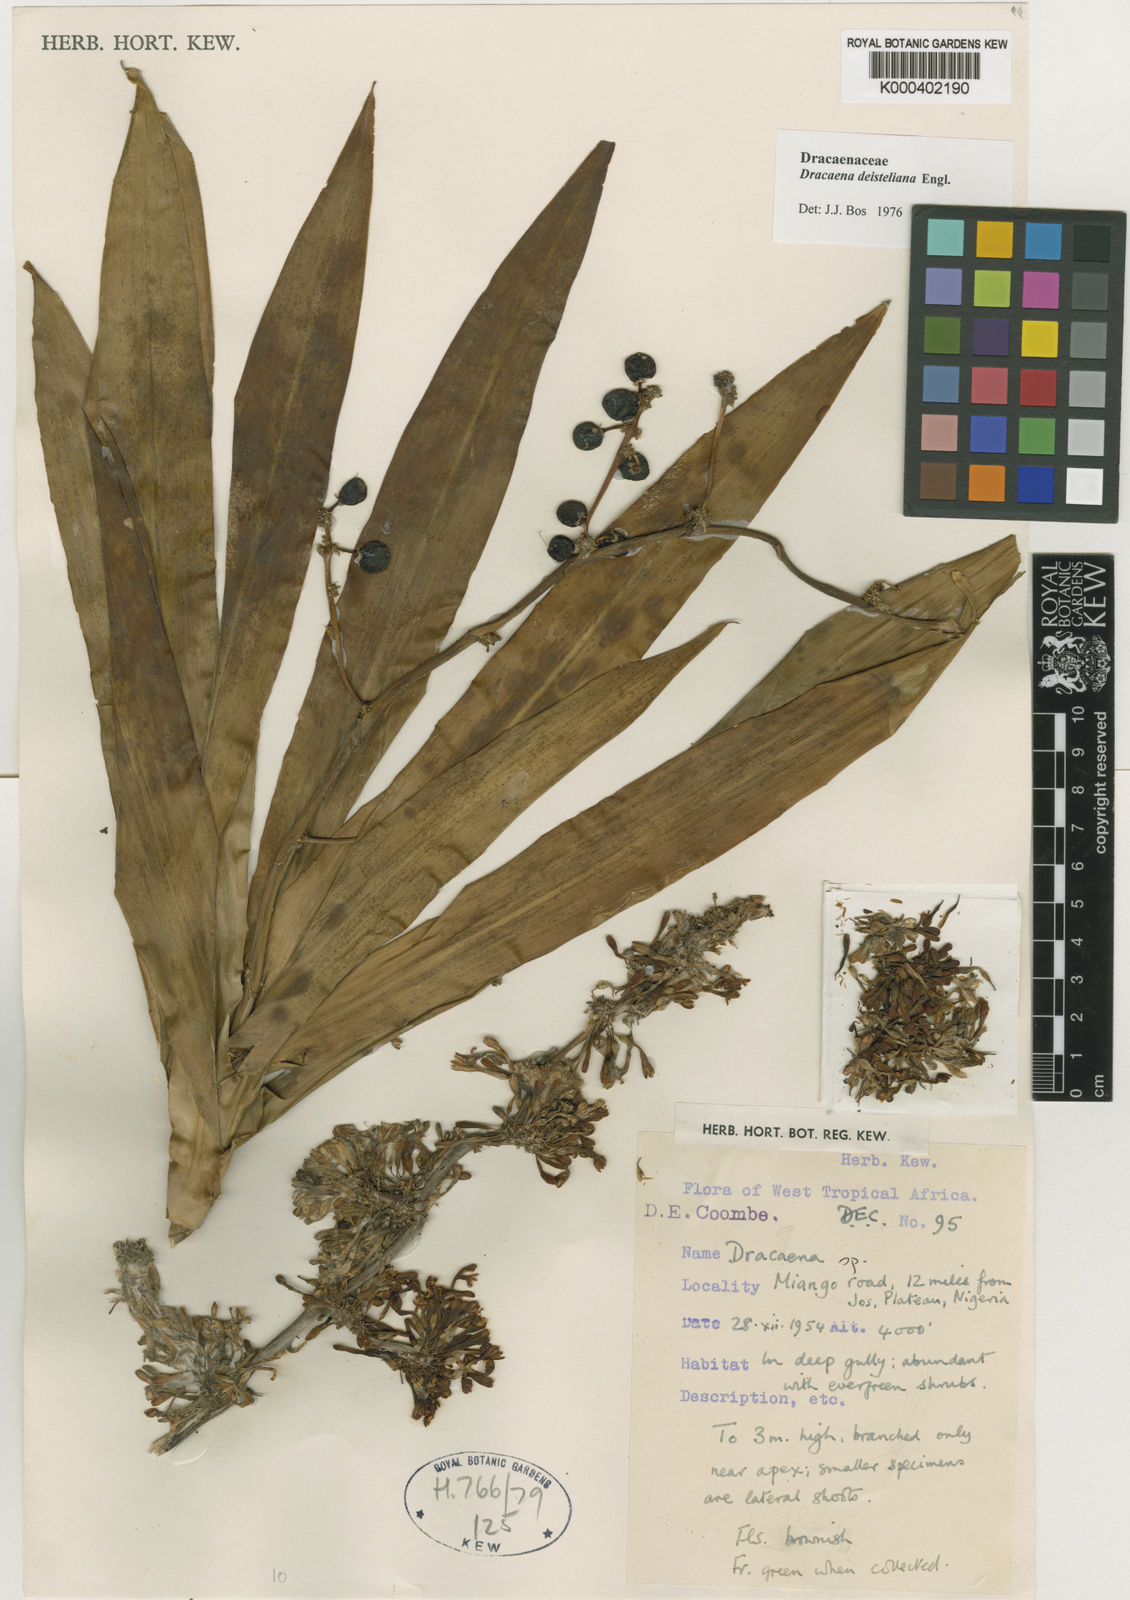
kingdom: Plantae
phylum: Tracheophyta
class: Liliopsida
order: Asparagales
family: Asparagaceae
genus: Dracaena
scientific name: Dracaena fragrans
